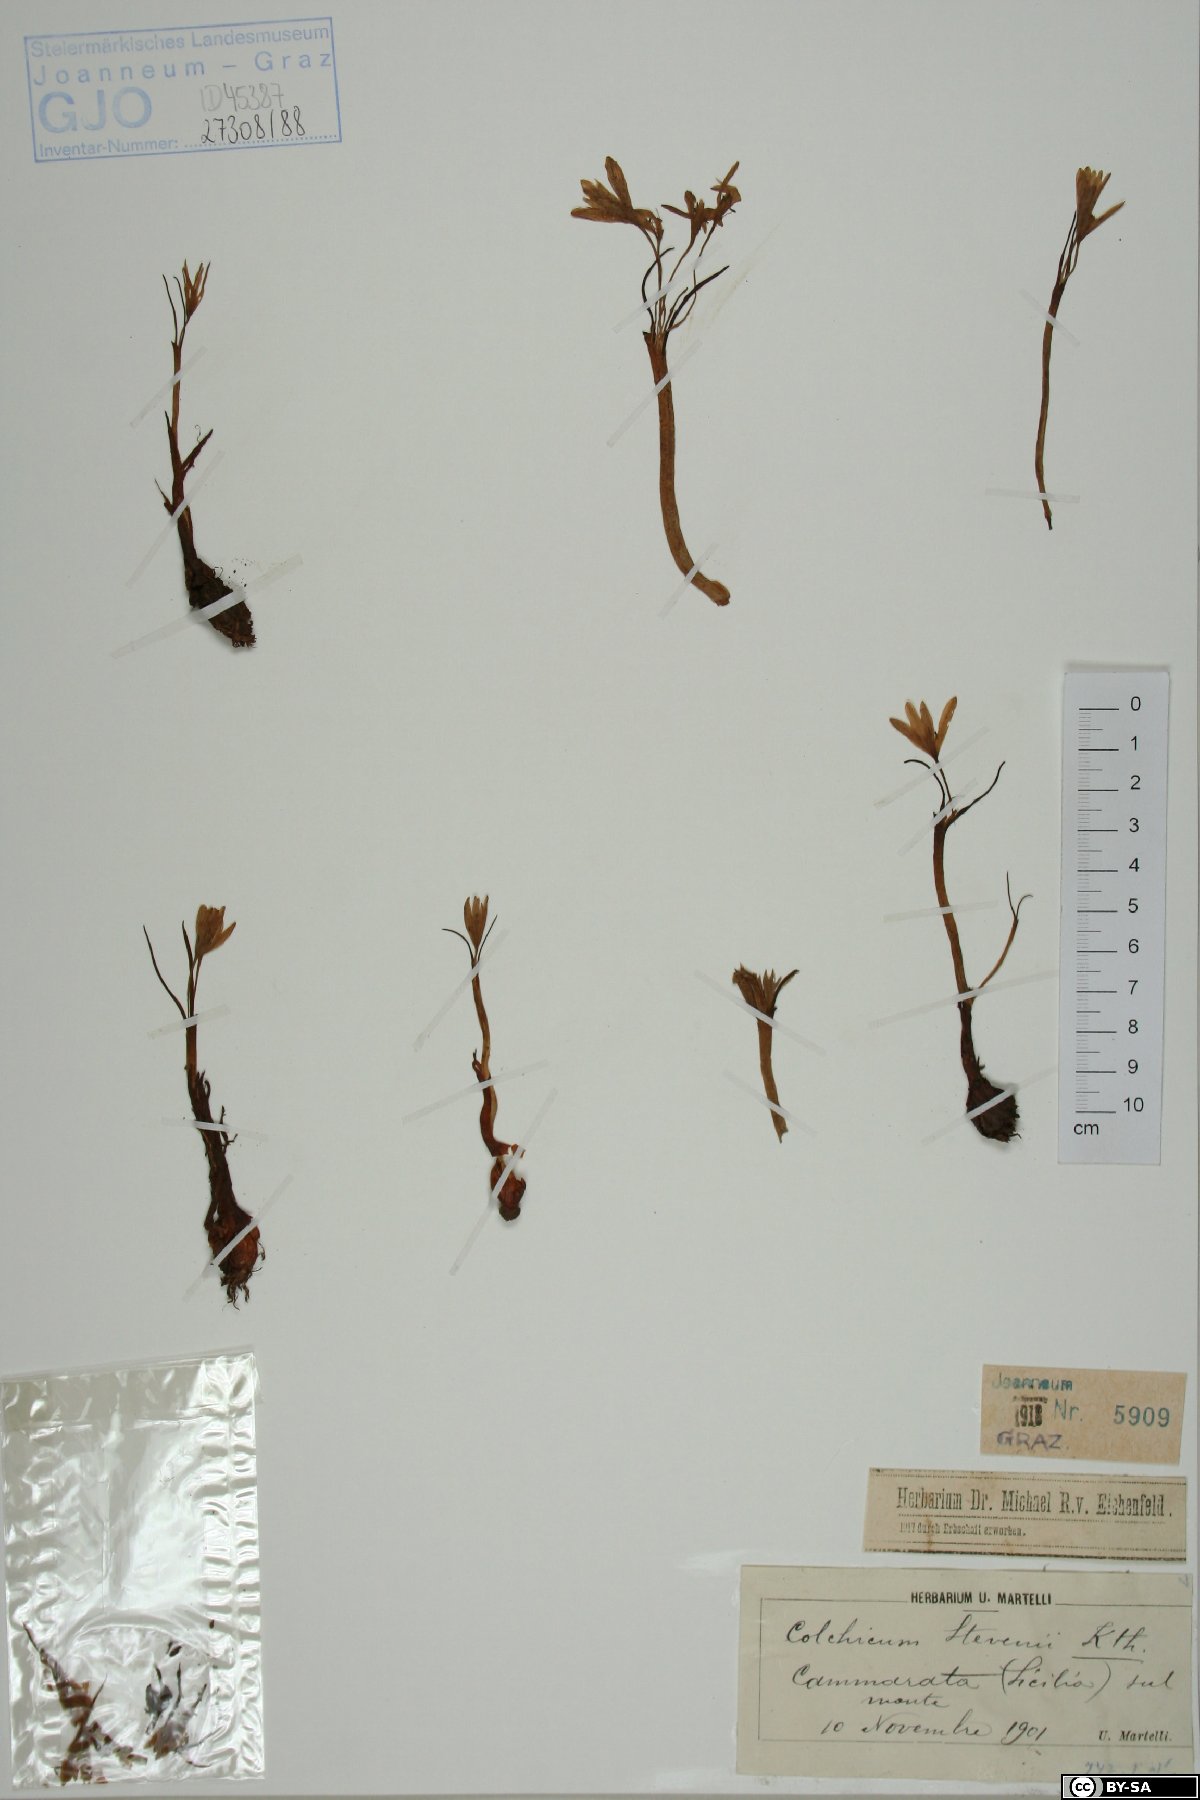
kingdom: Plantae
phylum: Tracheophyta
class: Liliopsida
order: Liliales
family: Colchicaceae
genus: Colchicum
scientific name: Colchicum stevenii
